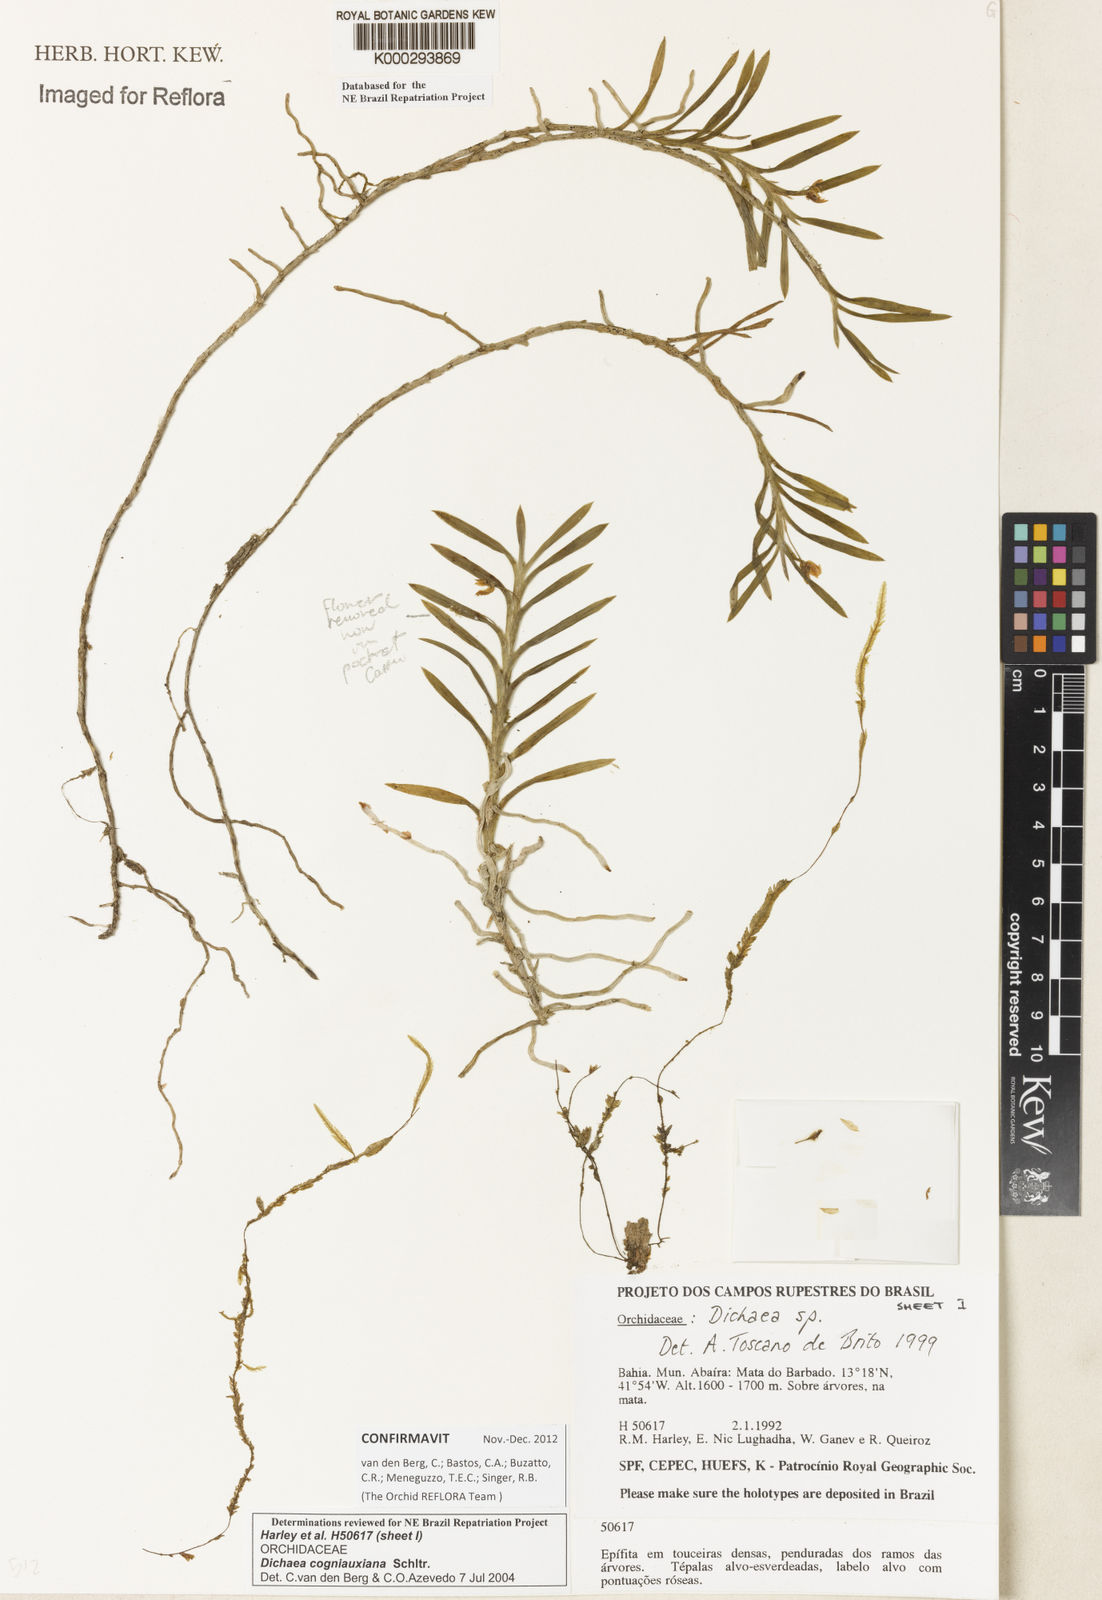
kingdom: Plantae
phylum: Tracheophyta
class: Liliopsida
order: Asparagales
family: Orchidaceae
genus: Dichaea
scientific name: Dichaea cogniauxiana
